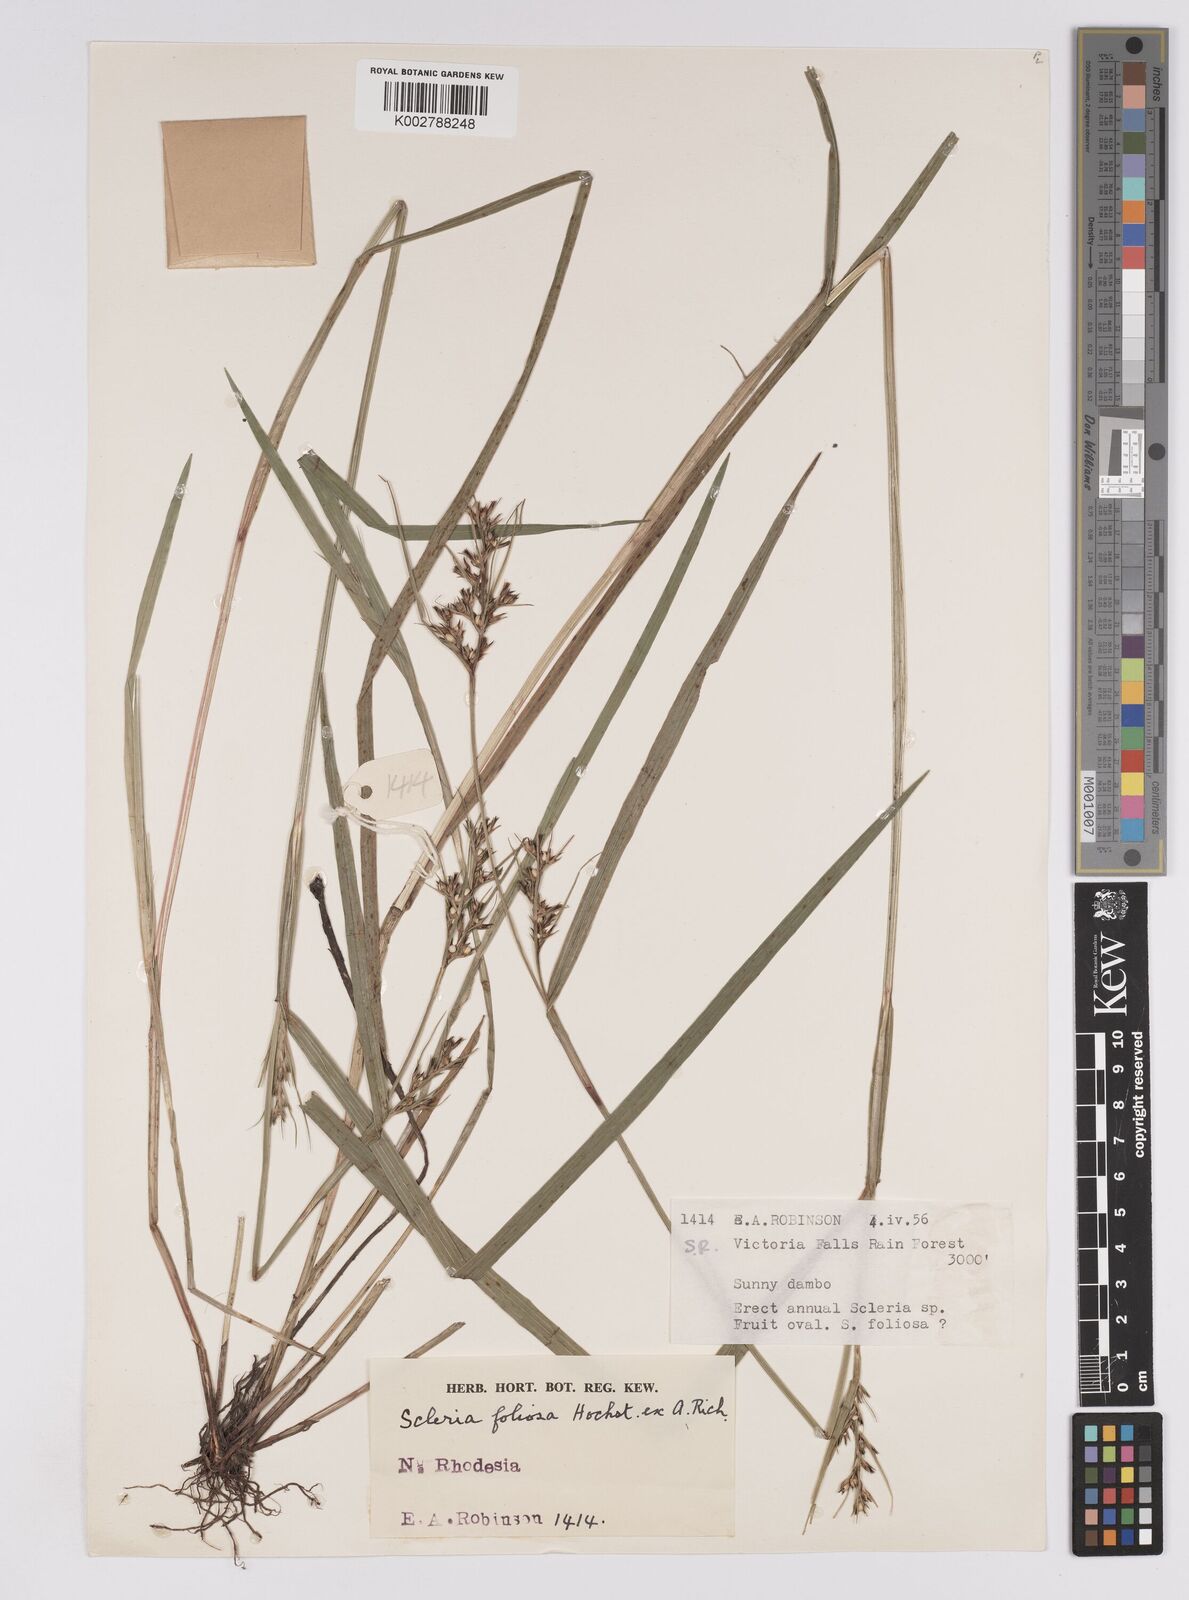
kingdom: Plantae
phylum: Tracheophyta
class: Liliopsida
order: Poales
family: Cyperaceae
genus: Scleria
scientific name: Scleria foliosa
